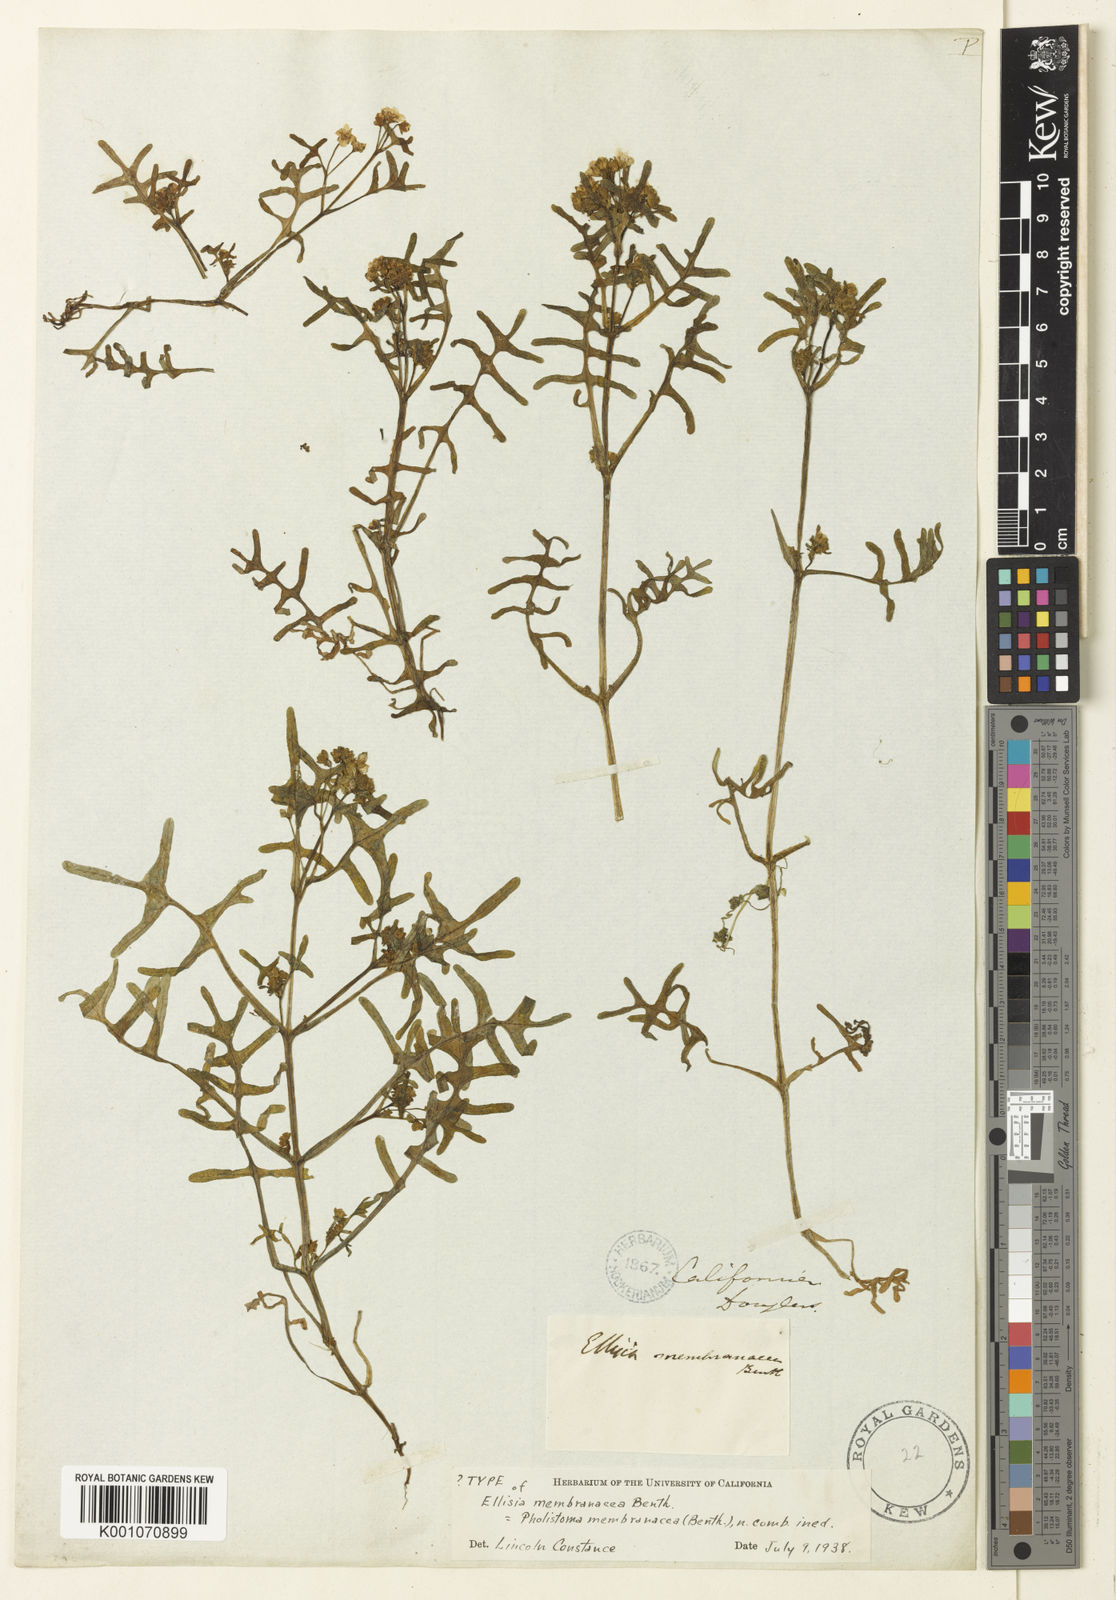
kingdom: Plantae
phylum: Tracheophyta
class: Magnoliopsida
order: Boraginales
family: Hydrophyllaceae
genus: Pholistoma
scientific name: Pholistoma membranaceum
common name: White fiesta-flower
